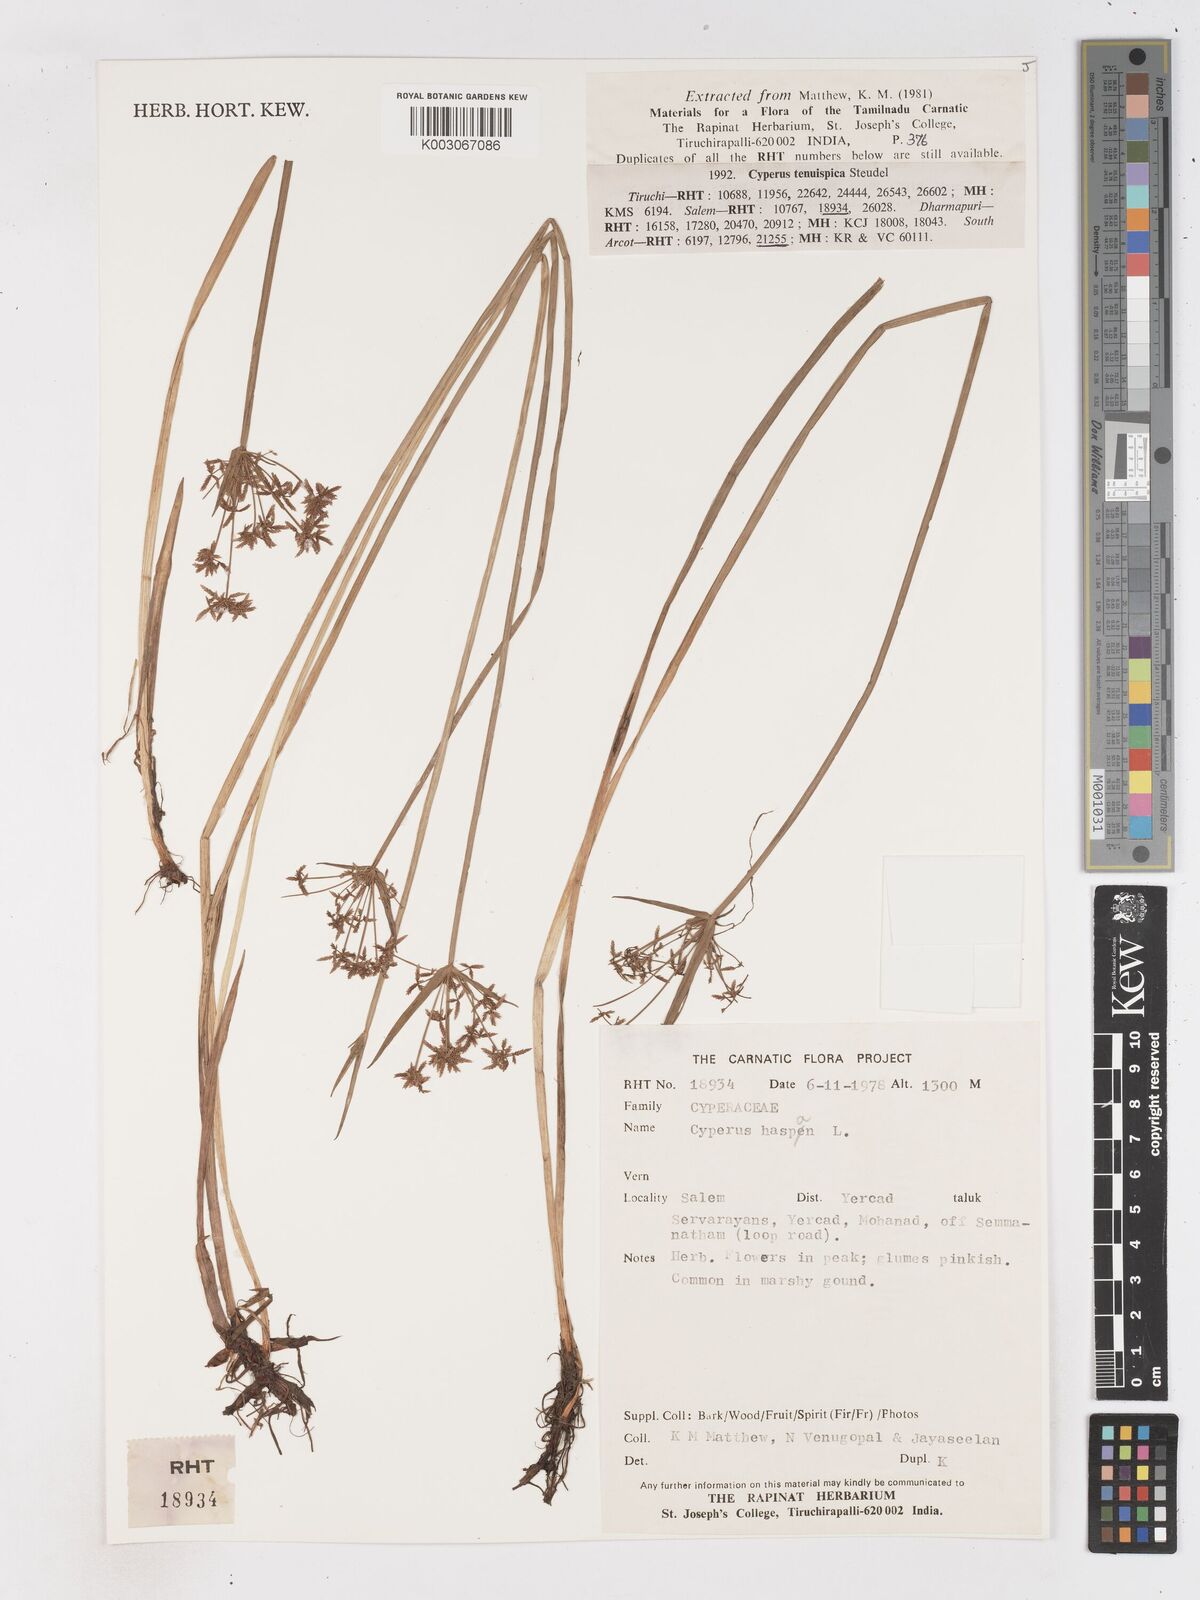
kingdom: Plantae
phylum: Tracheophyta
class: Liliopsida
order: Poales
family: Cyperaceae
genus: Cyperus
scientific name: Cyperus haspan
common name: Haspan flatsedge
